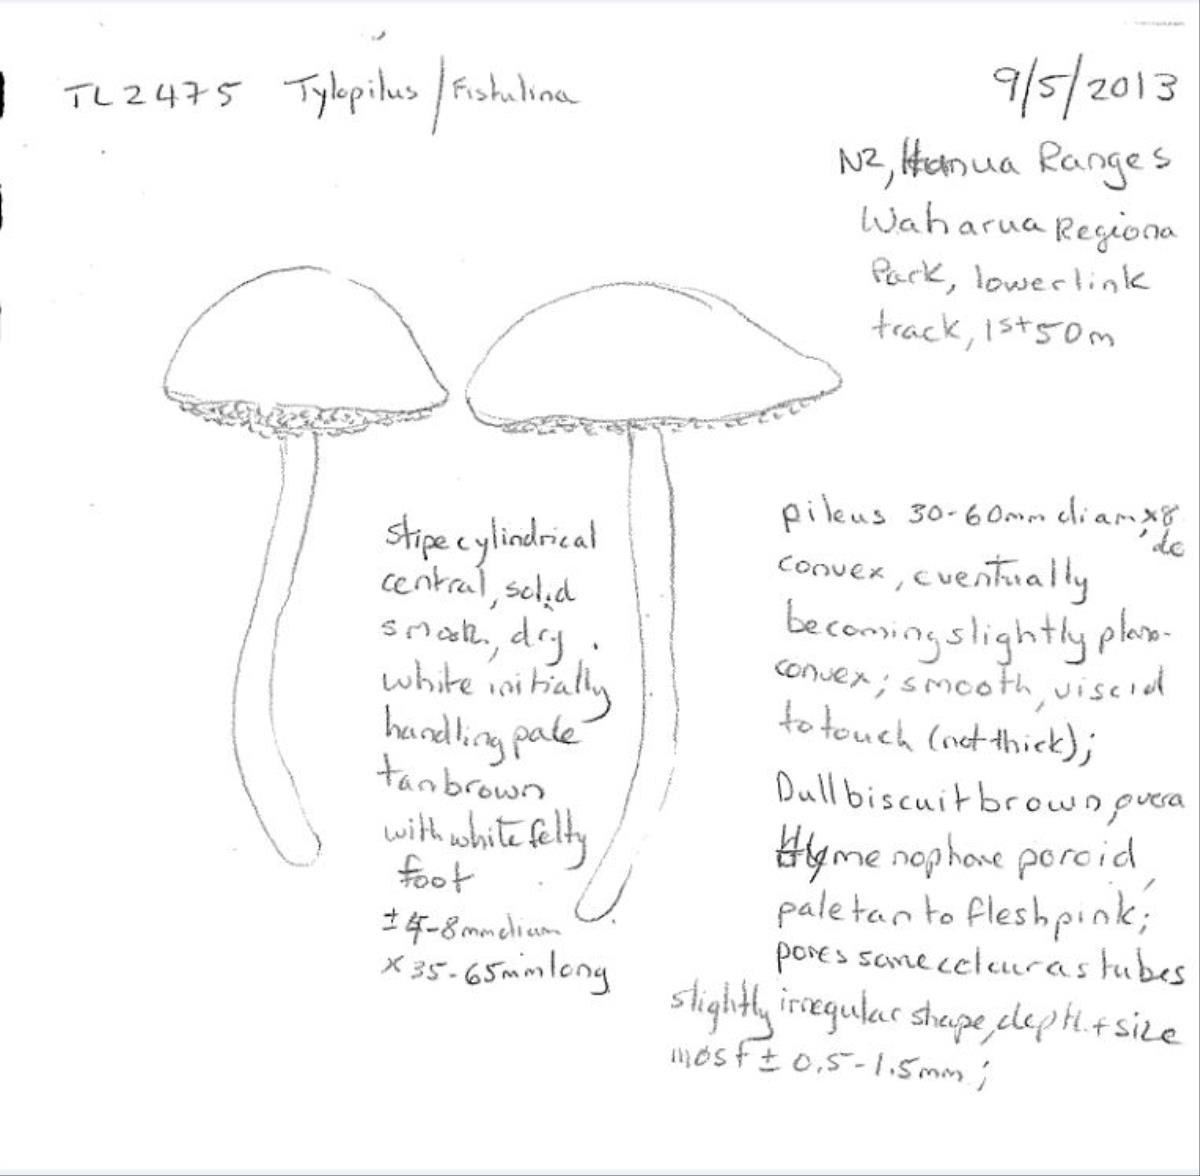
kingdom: Fungi
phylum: Basidiomycota
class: Agaricomycetes
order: Boletales
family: Boletaceae
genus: Tylopilus
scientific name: Tylopilus
